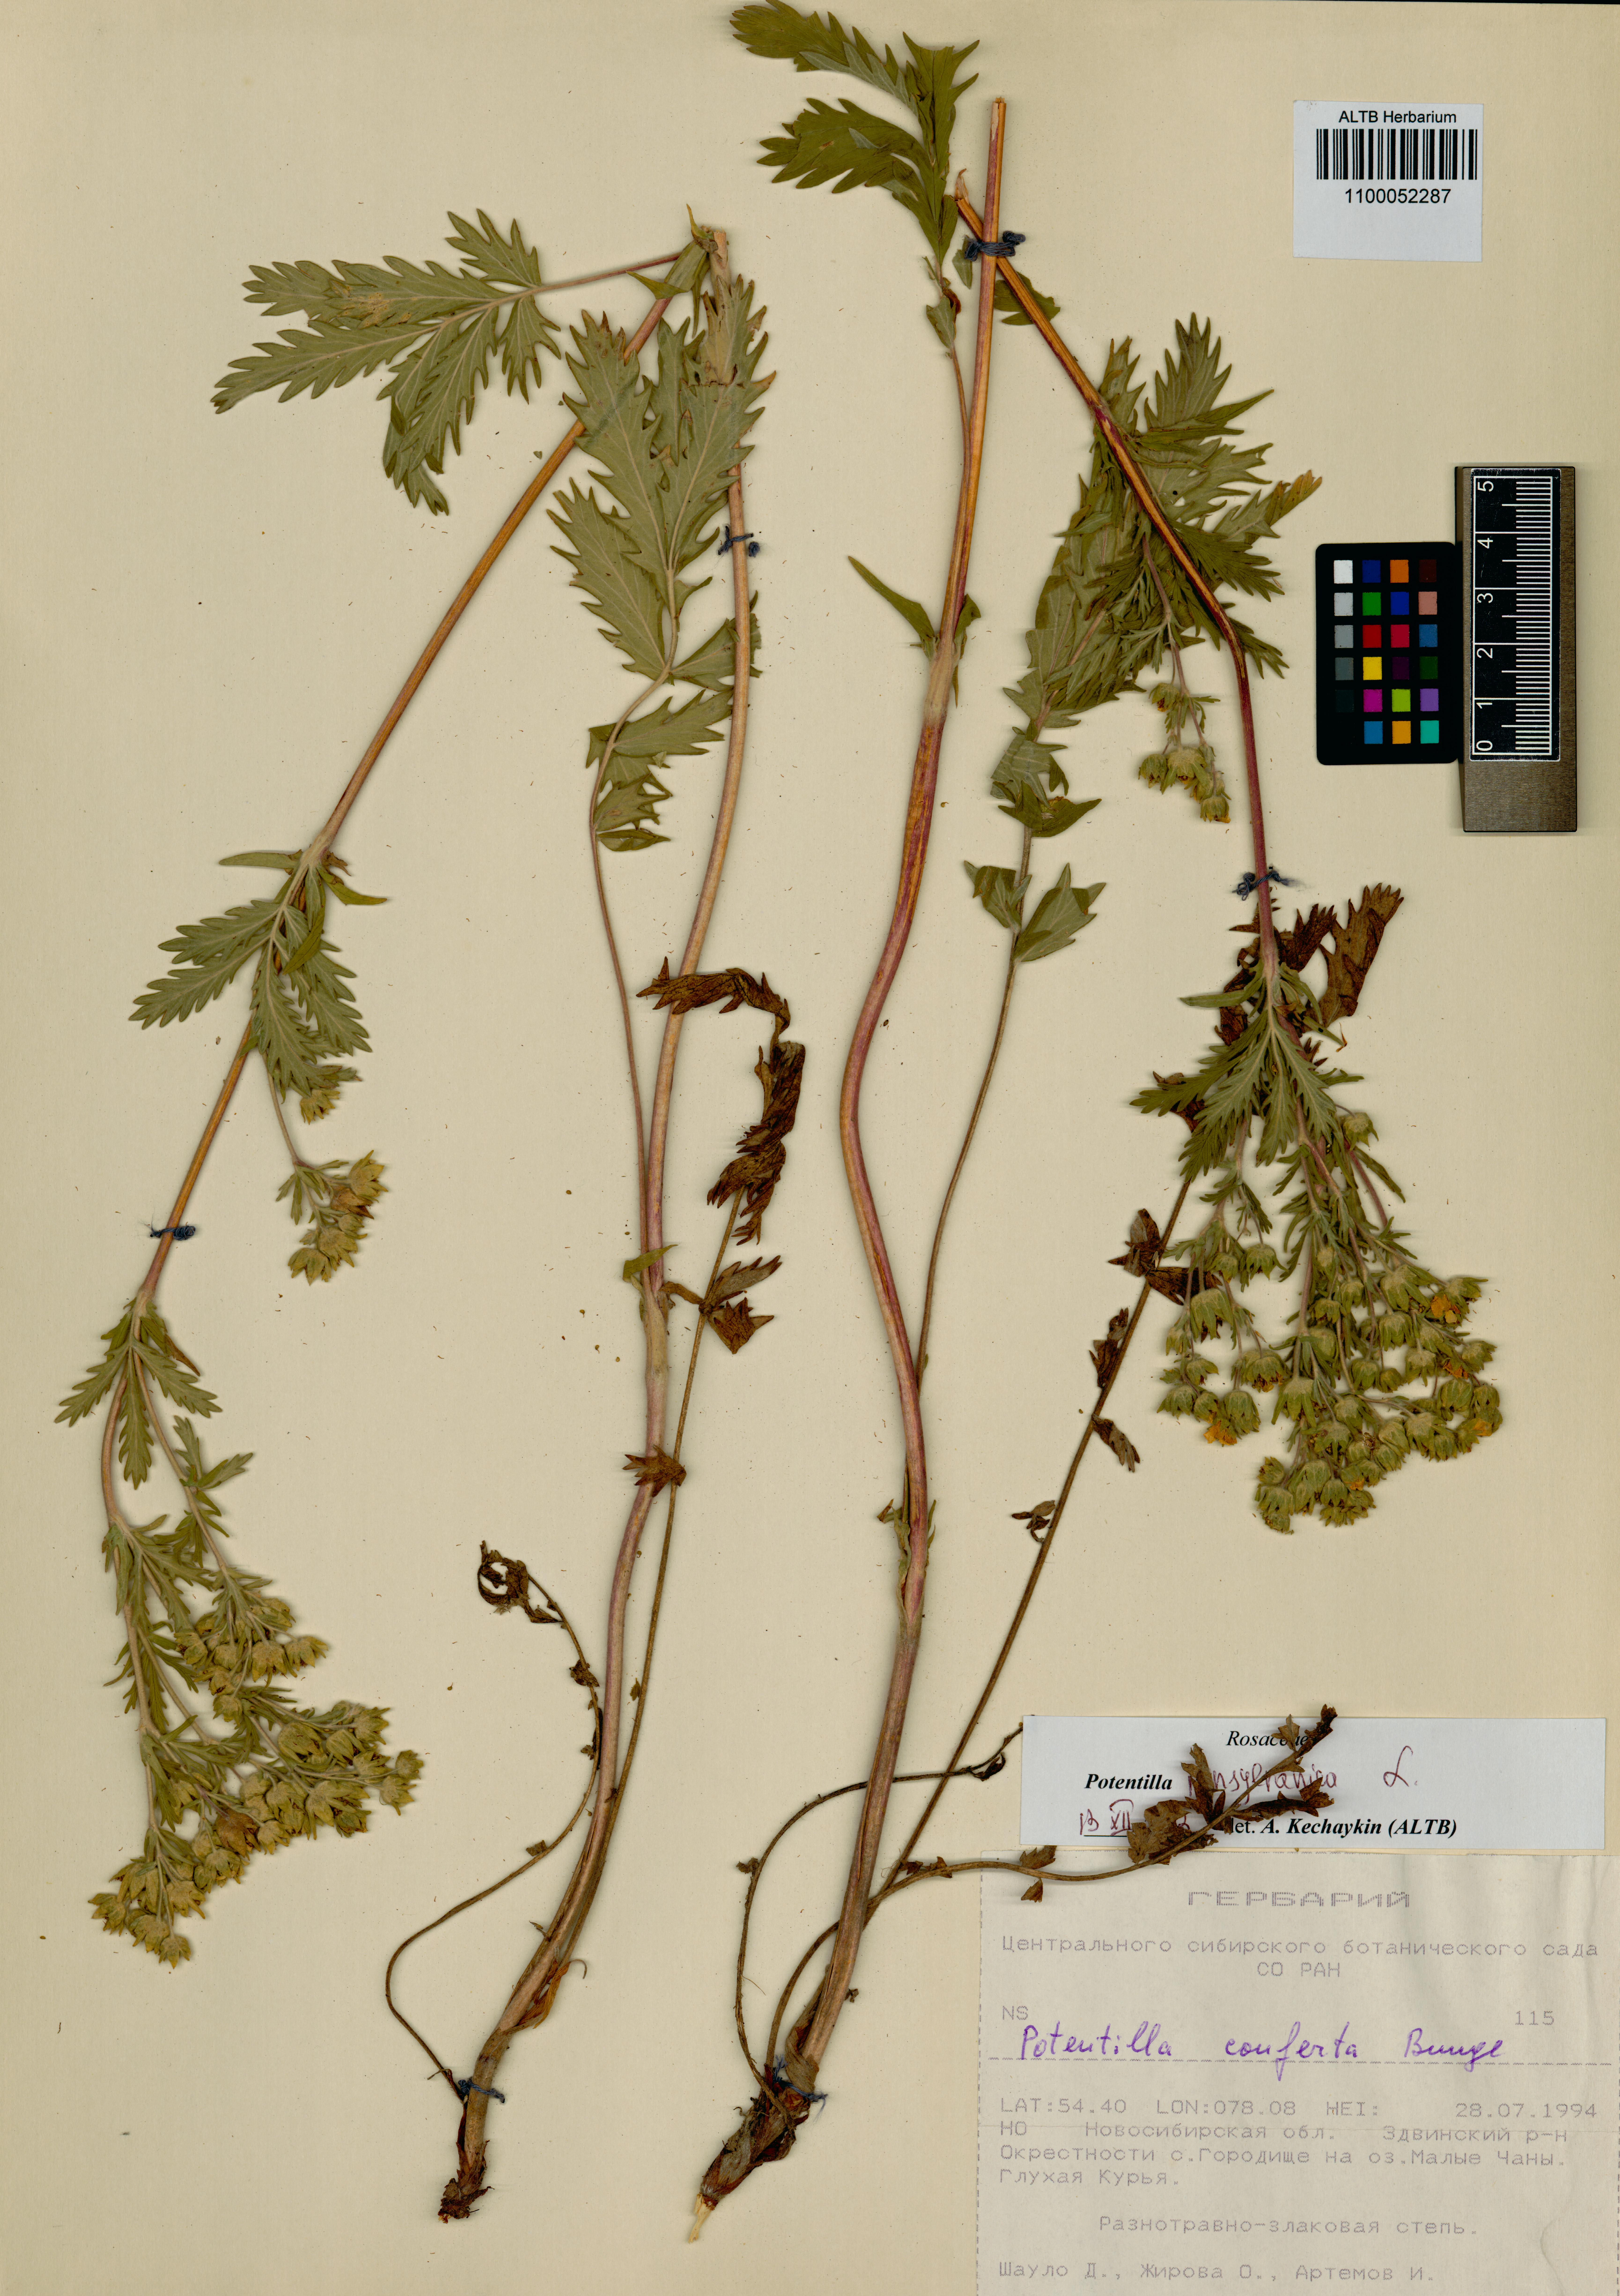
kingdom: Plantae
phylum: Tracheophyta
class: Magnoliopsida
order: Rosales
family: Rosaceae
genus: Potentilla
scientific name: Potentilla pensylvanica
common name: Pennsylvania cinquefoil
